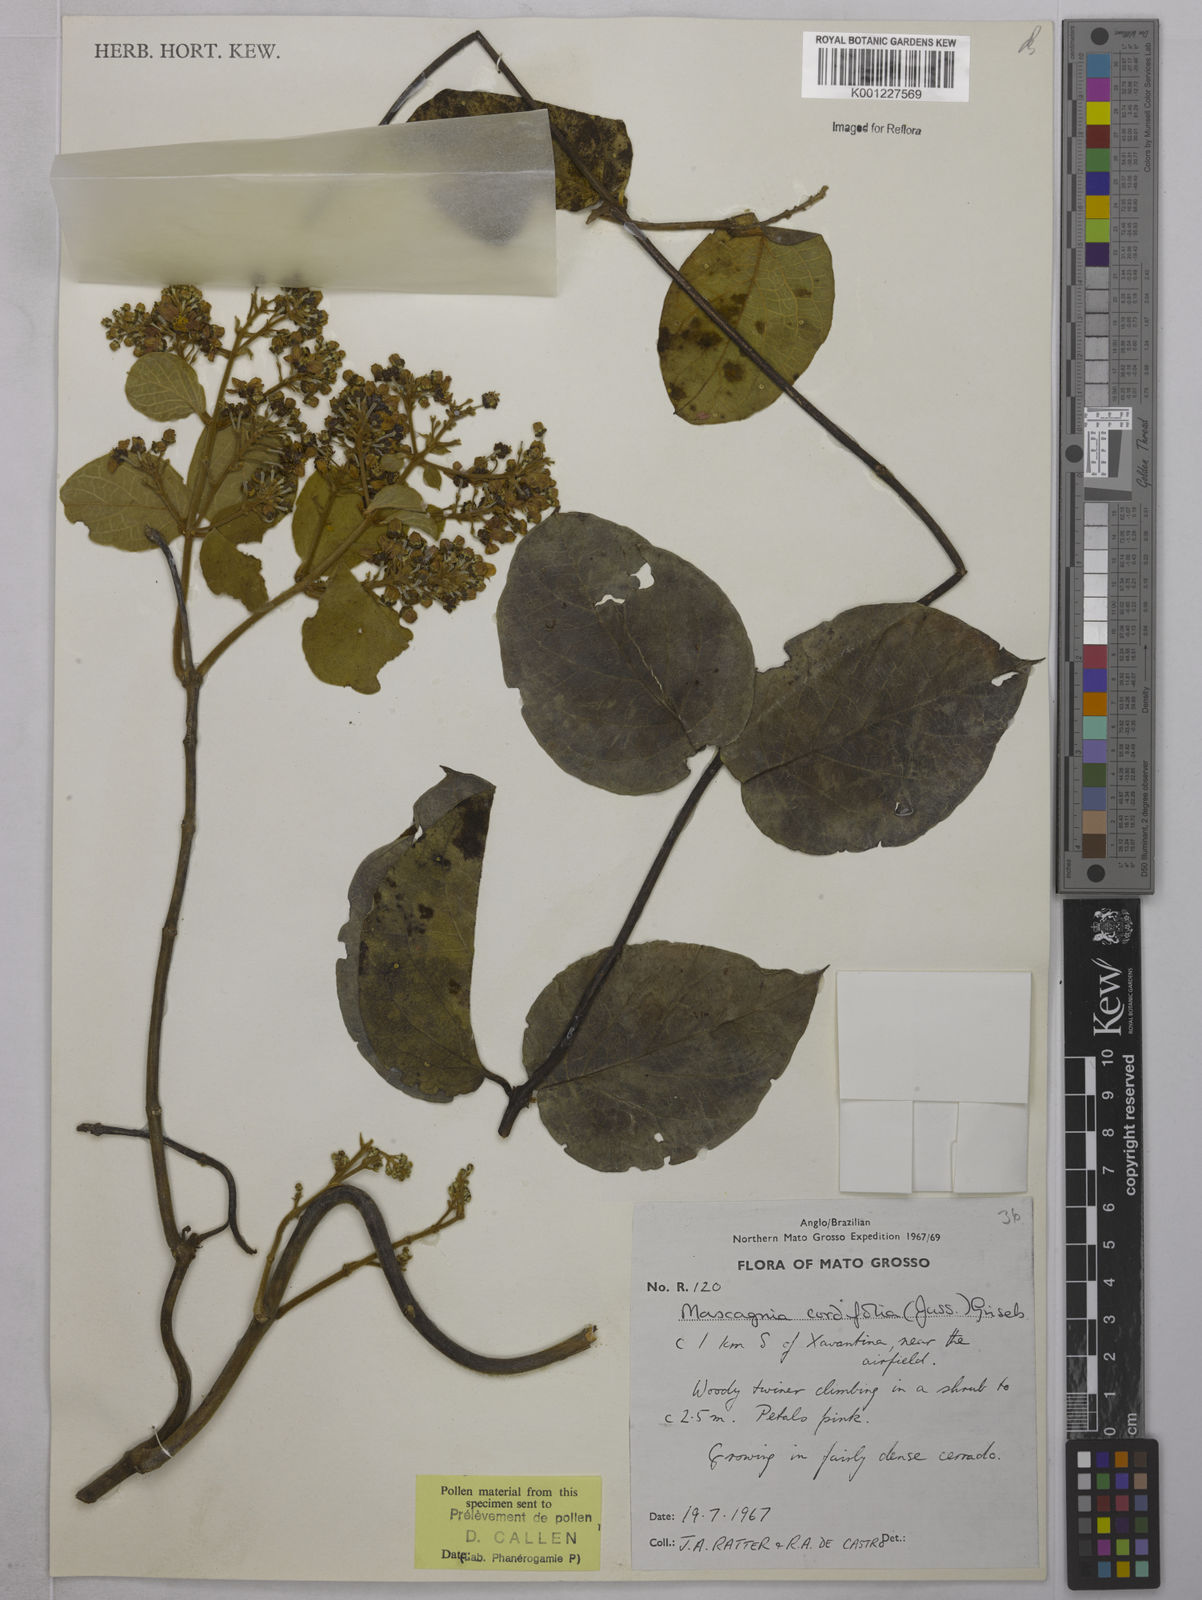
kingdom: Plantae
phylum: Tracheophyta
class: Magnoliopsida
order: Malpighiales
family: Malpighiaceae
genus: Mascagnia
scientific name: Mascagnia cordifolia
